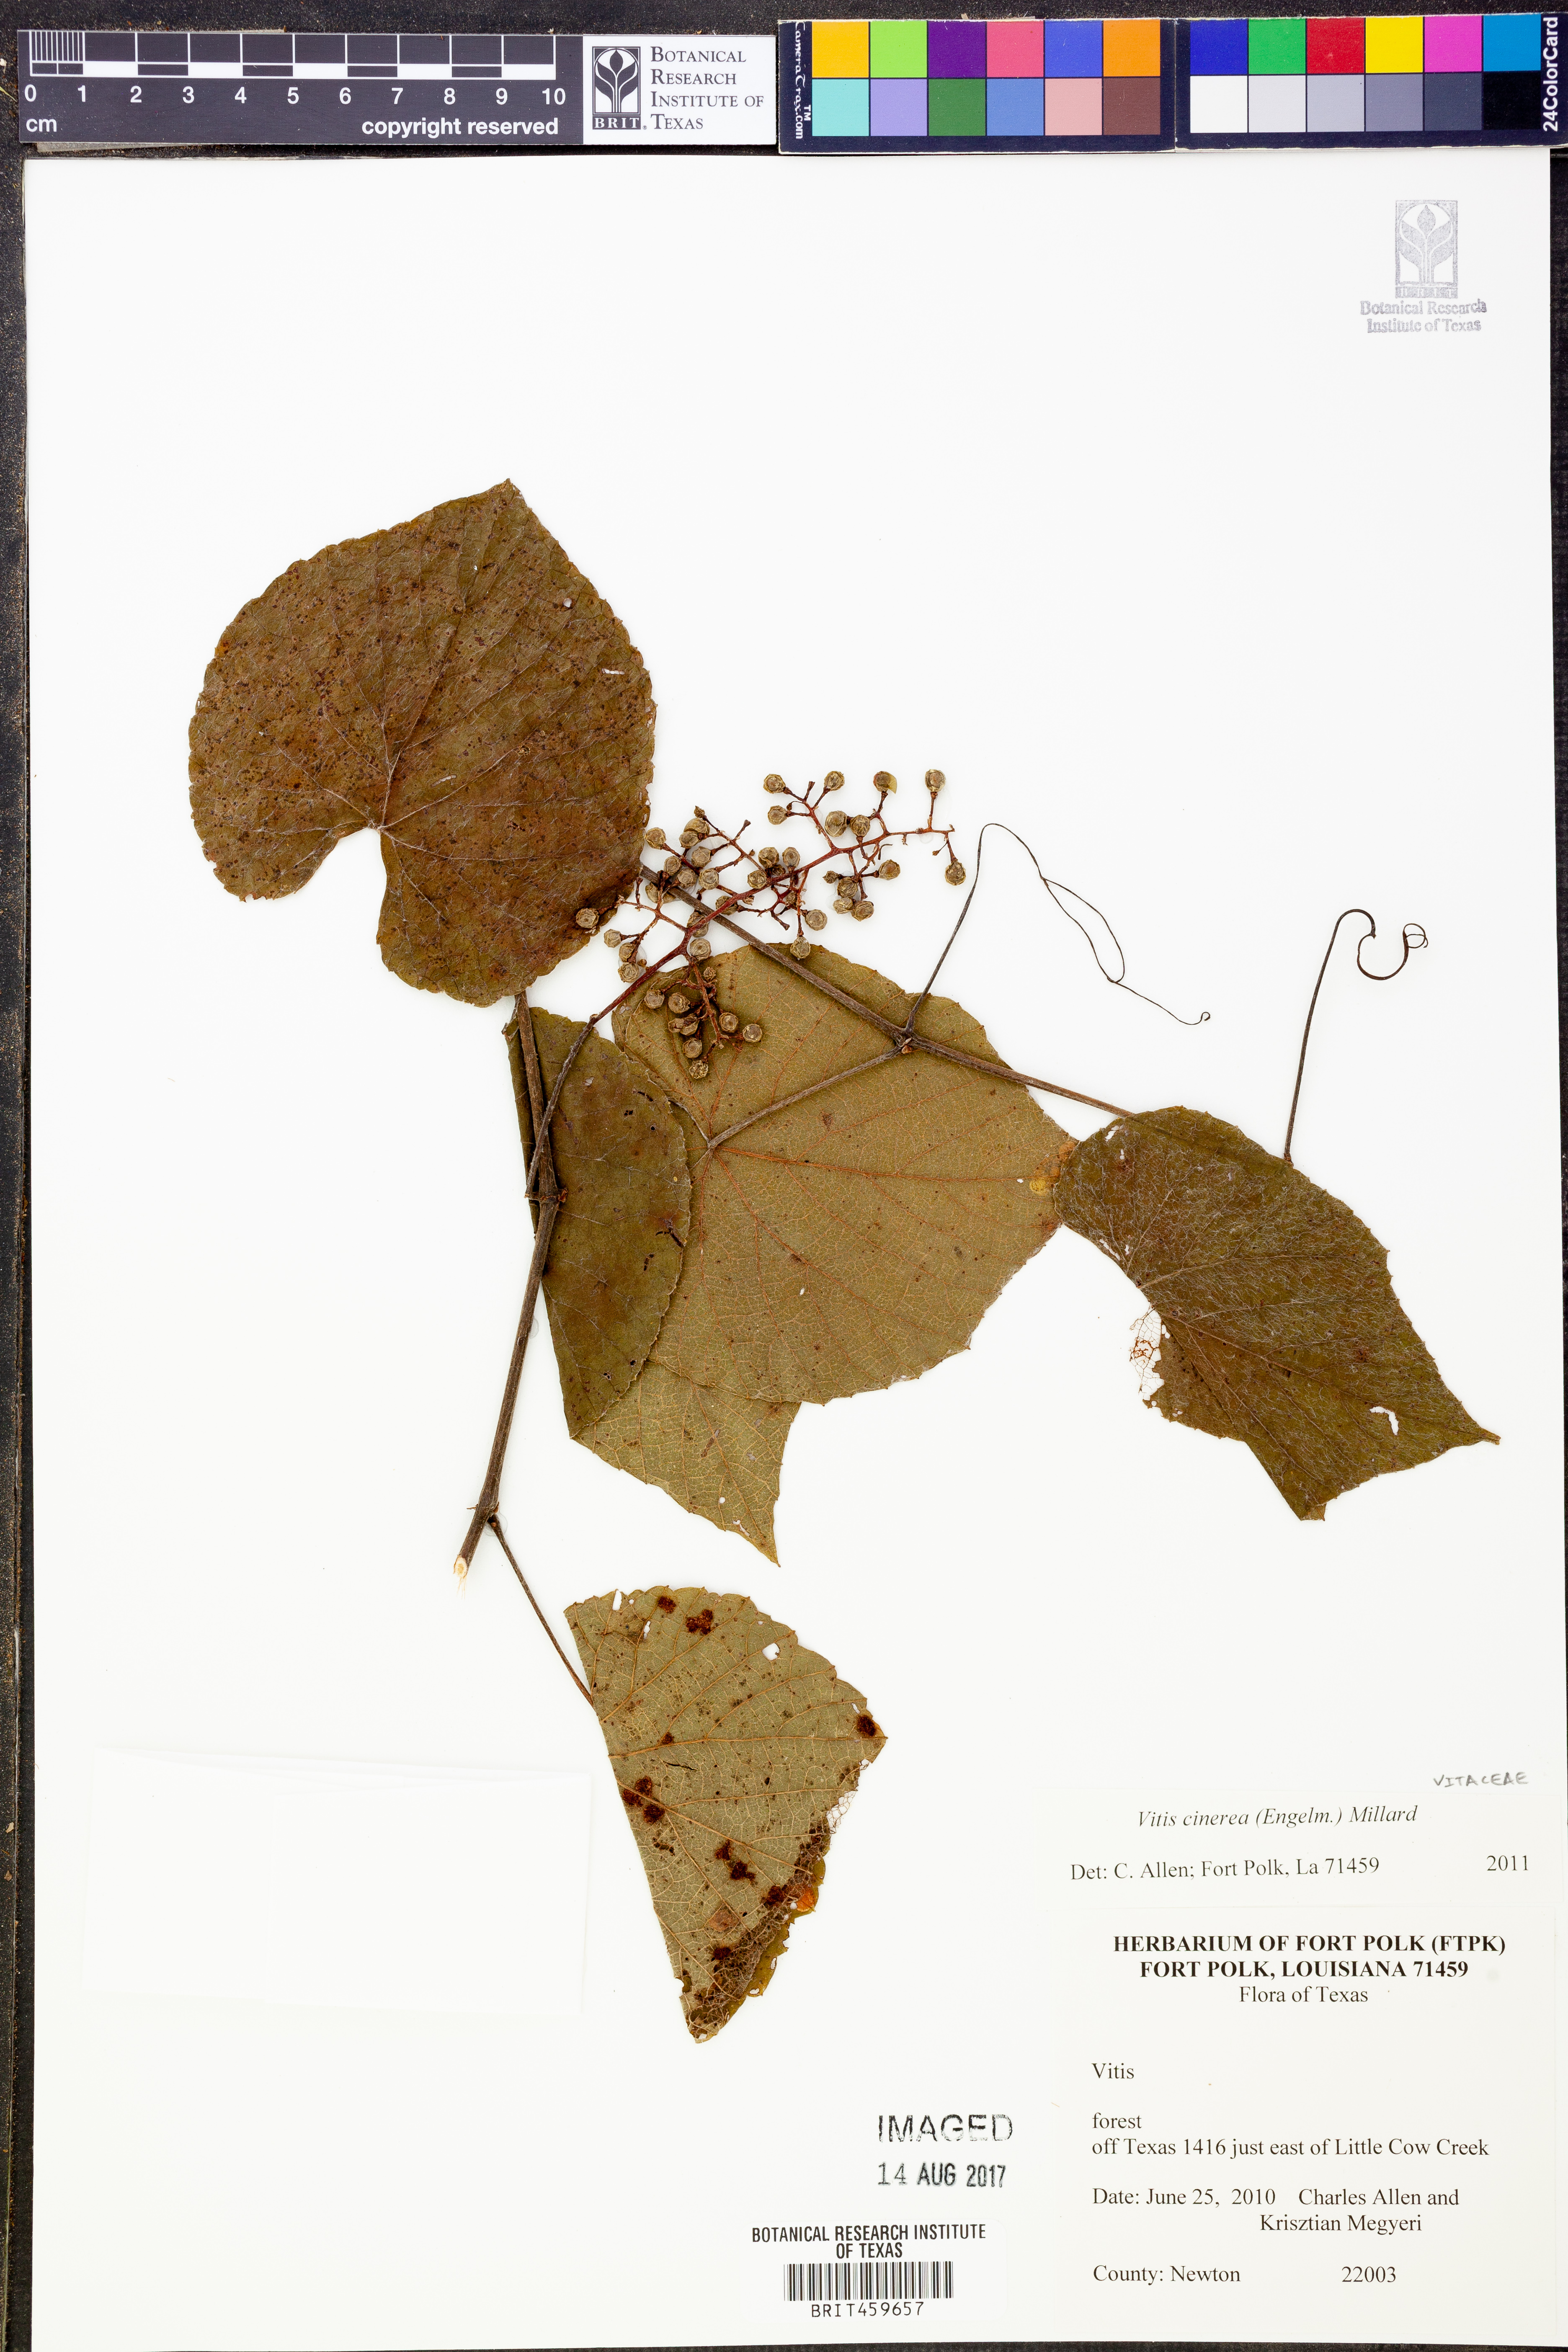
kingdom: Plantae
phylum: Tracheophyta
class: Magnoliopsida
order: Vitales
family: Vitaceae
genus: Vitis
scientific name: Vitis cinerea
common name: Ashy grape
